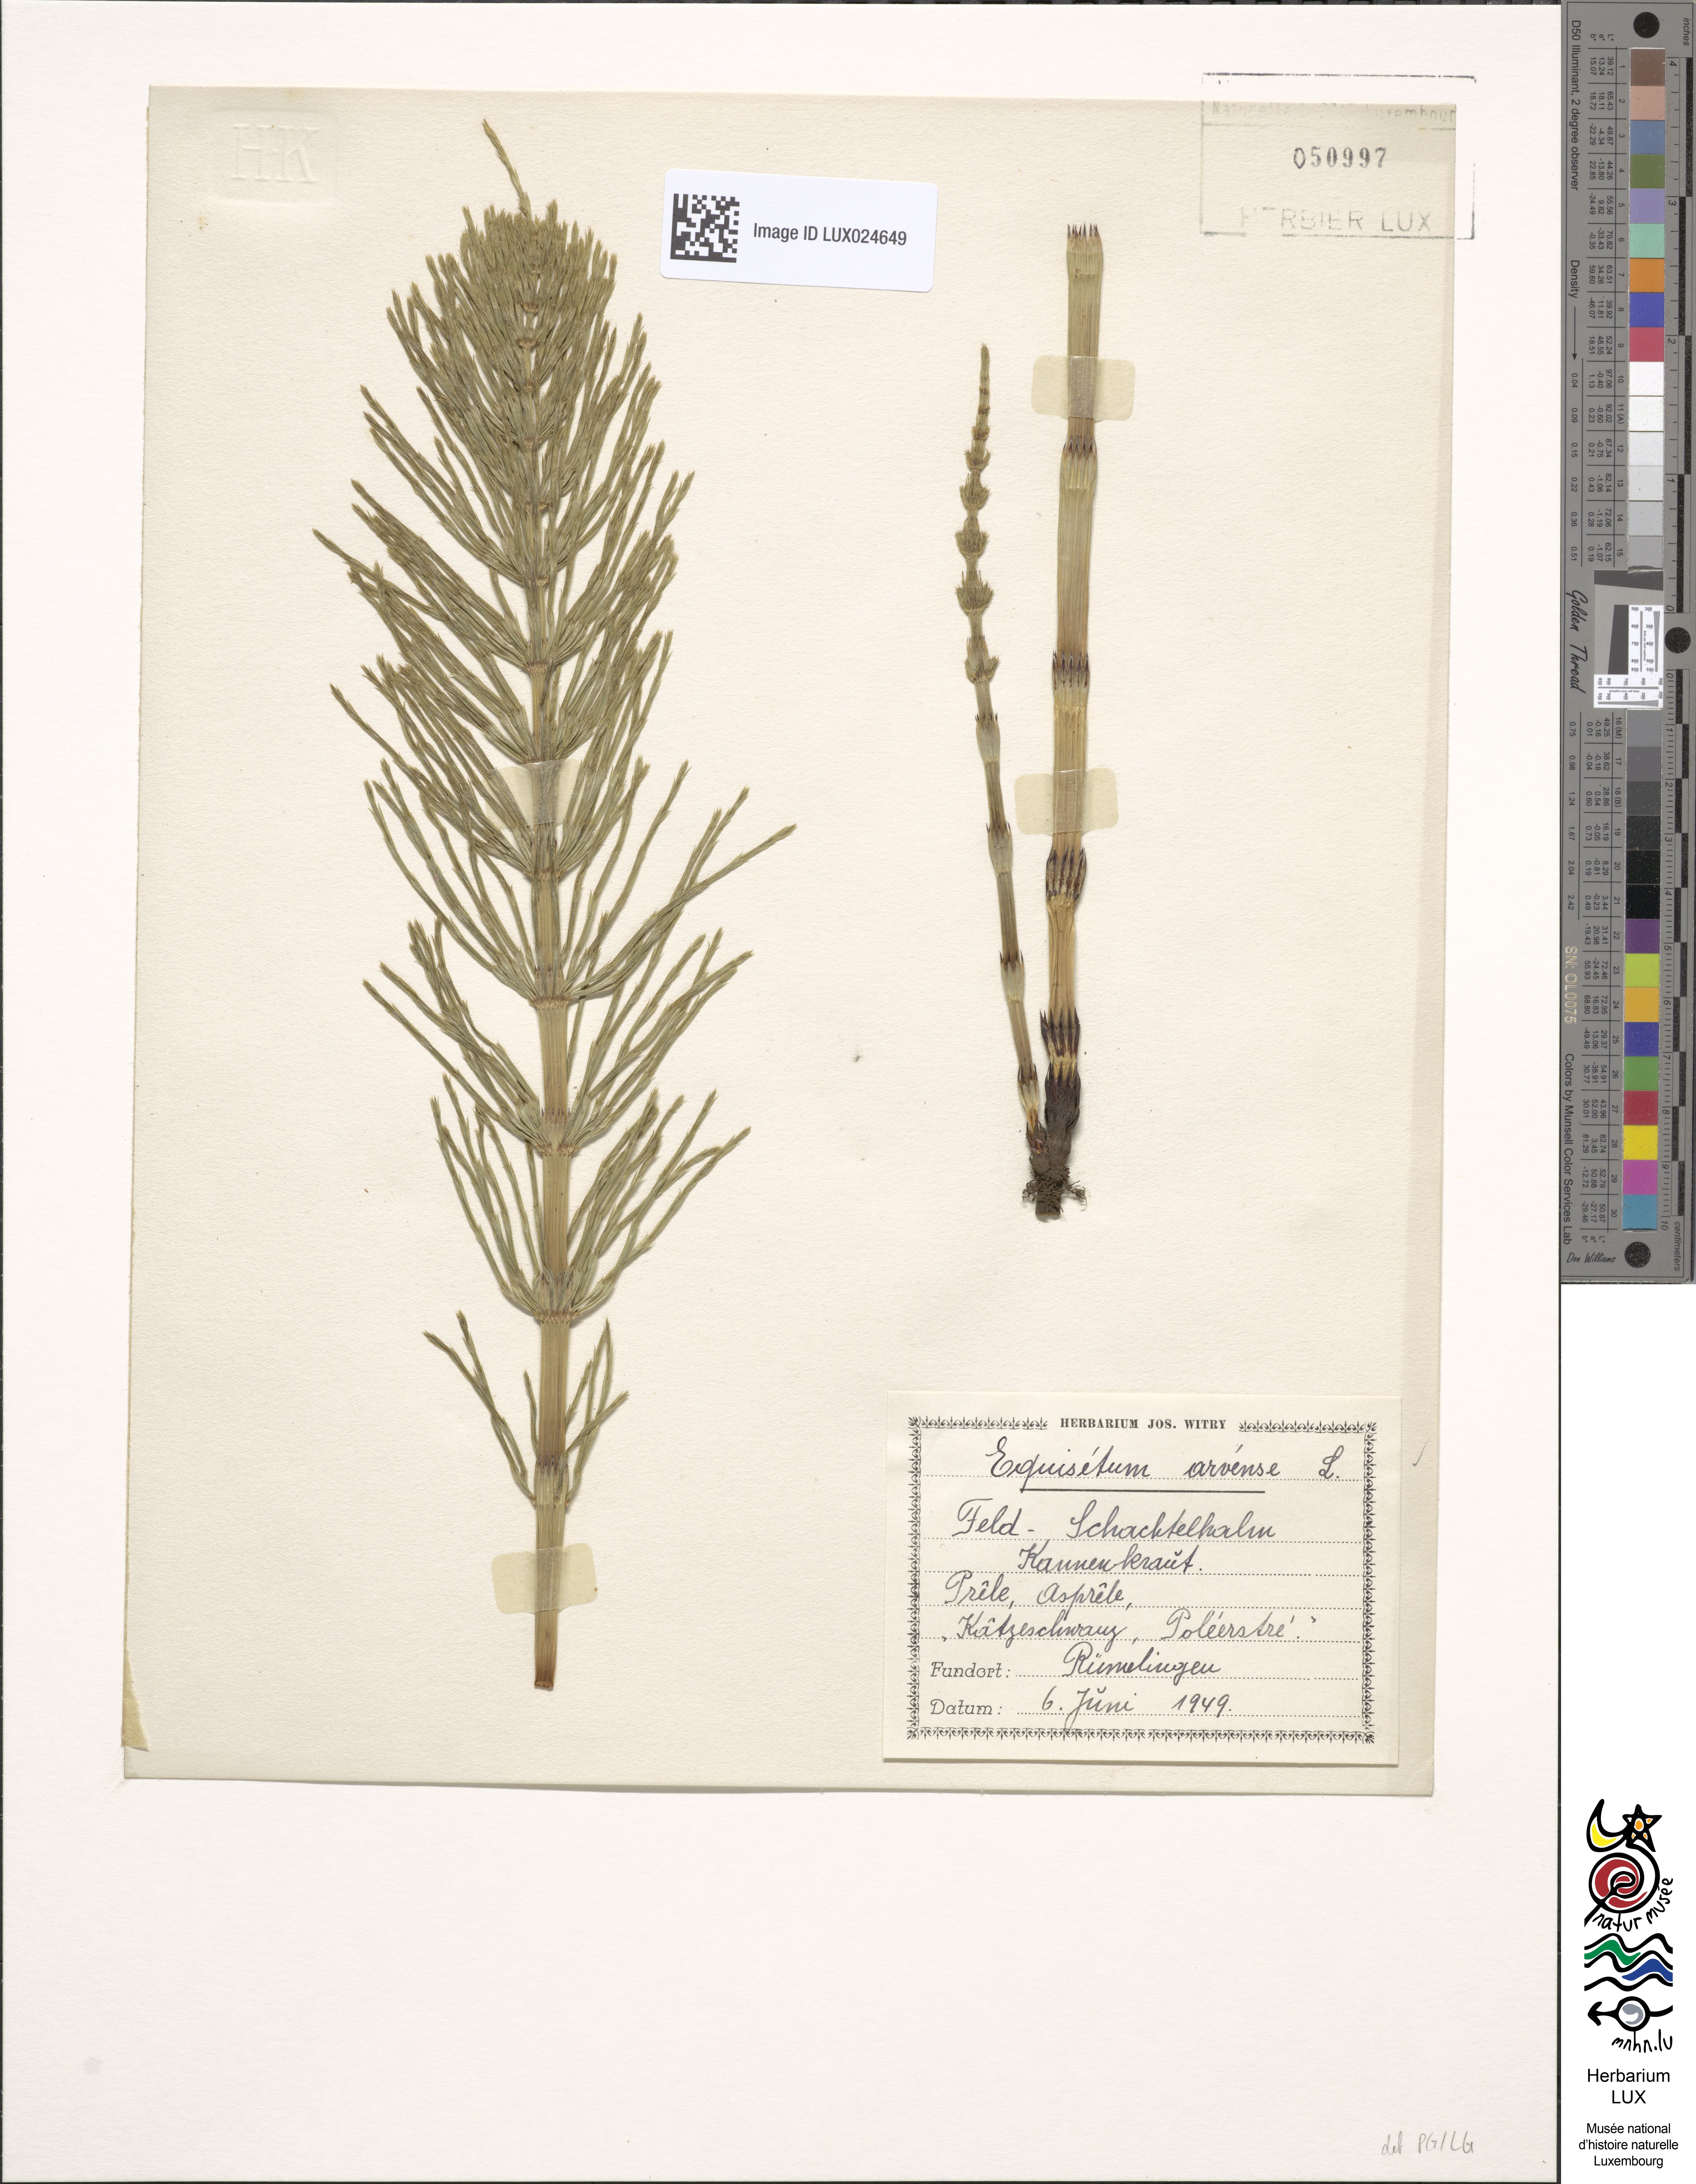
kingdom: Plantae
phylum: Tracheophyta
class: Polypodiopsida
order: Equisetales
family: Equisetaceae
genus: Equisetum
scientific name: Equisetum arvense
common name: Field horsetail
